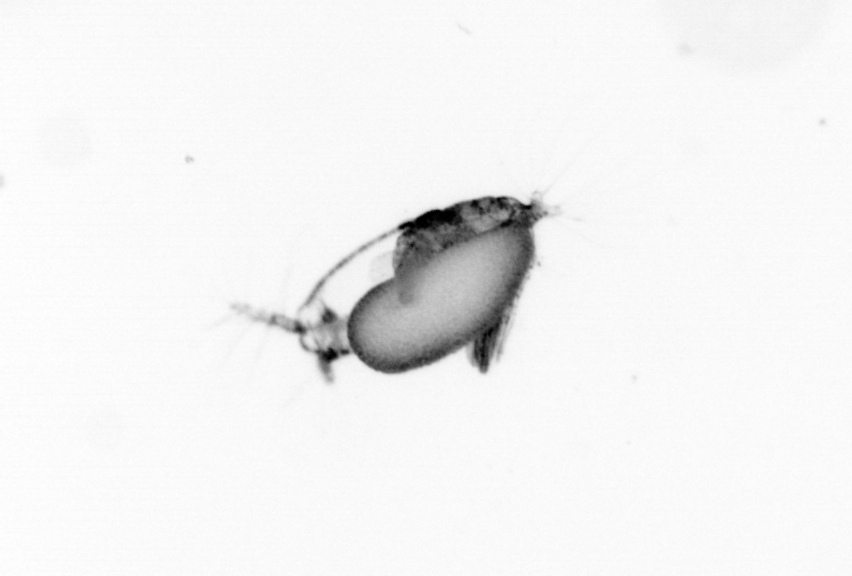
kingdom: Animalia
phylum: Arthropoda
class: Copepoda
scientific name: Copepoda
